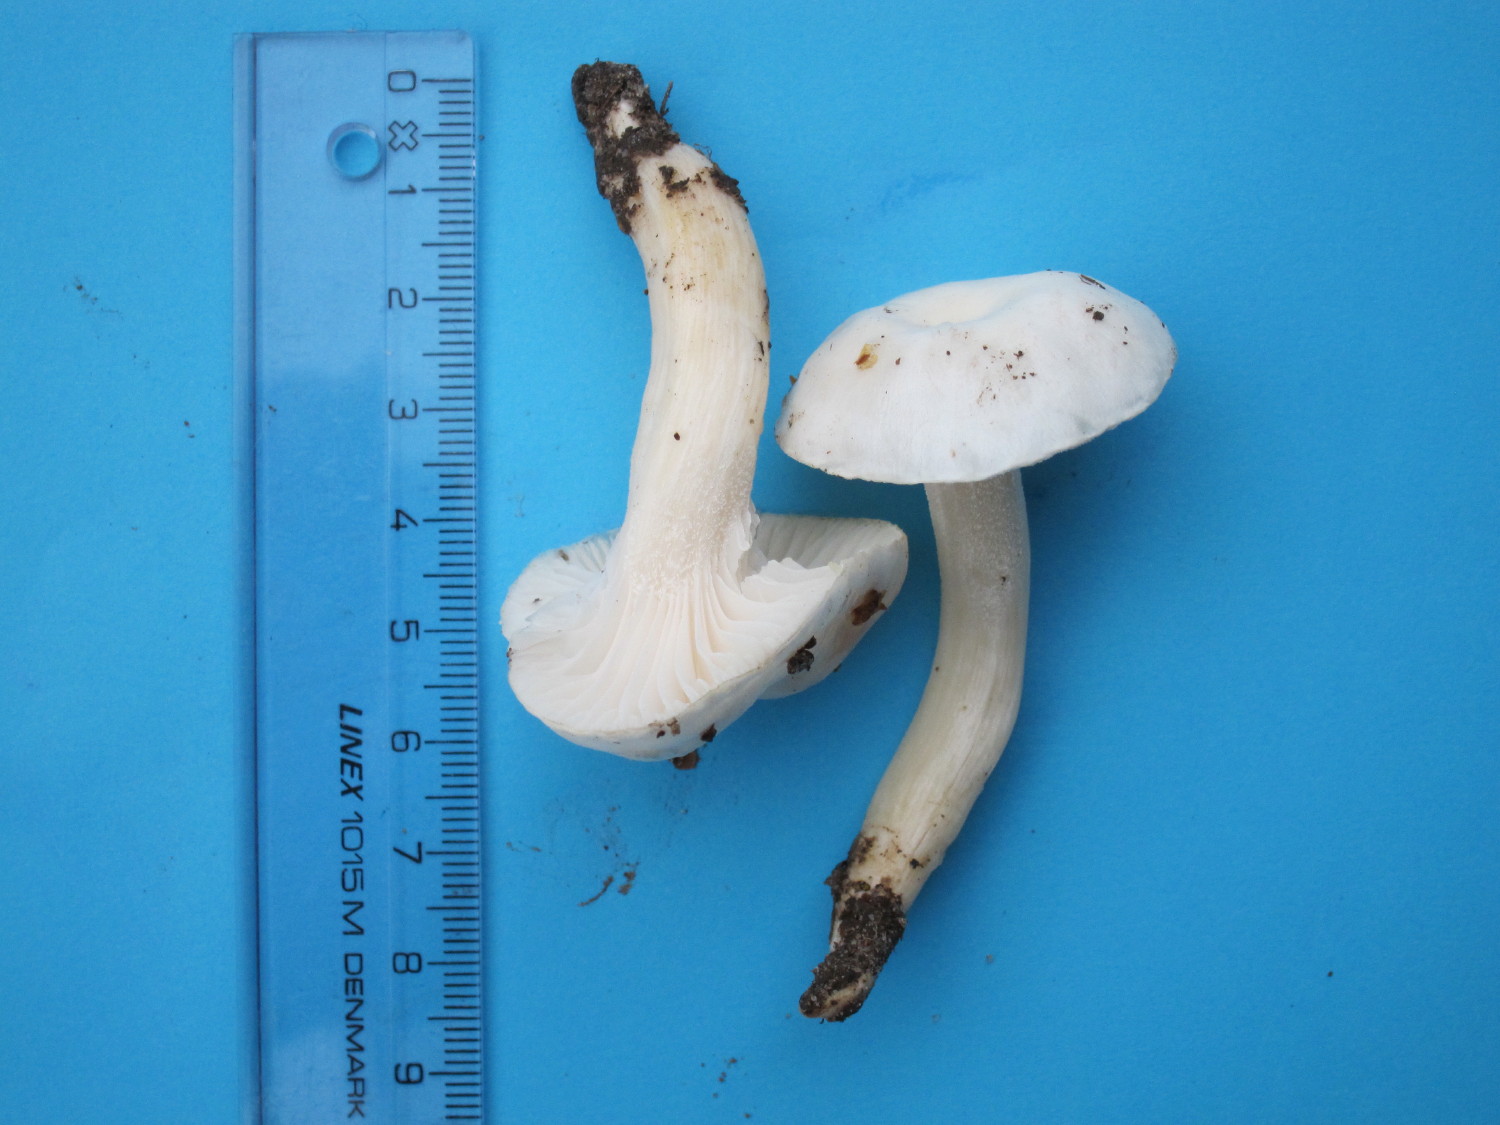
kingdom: Fungi
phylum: Basidiomycota
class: Agaricomycetes
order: Agaricales
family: Hygrophoraceae
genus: Hygrophorus
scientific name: Hygrophorus eburneus
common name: elfenbens-sneglehat
